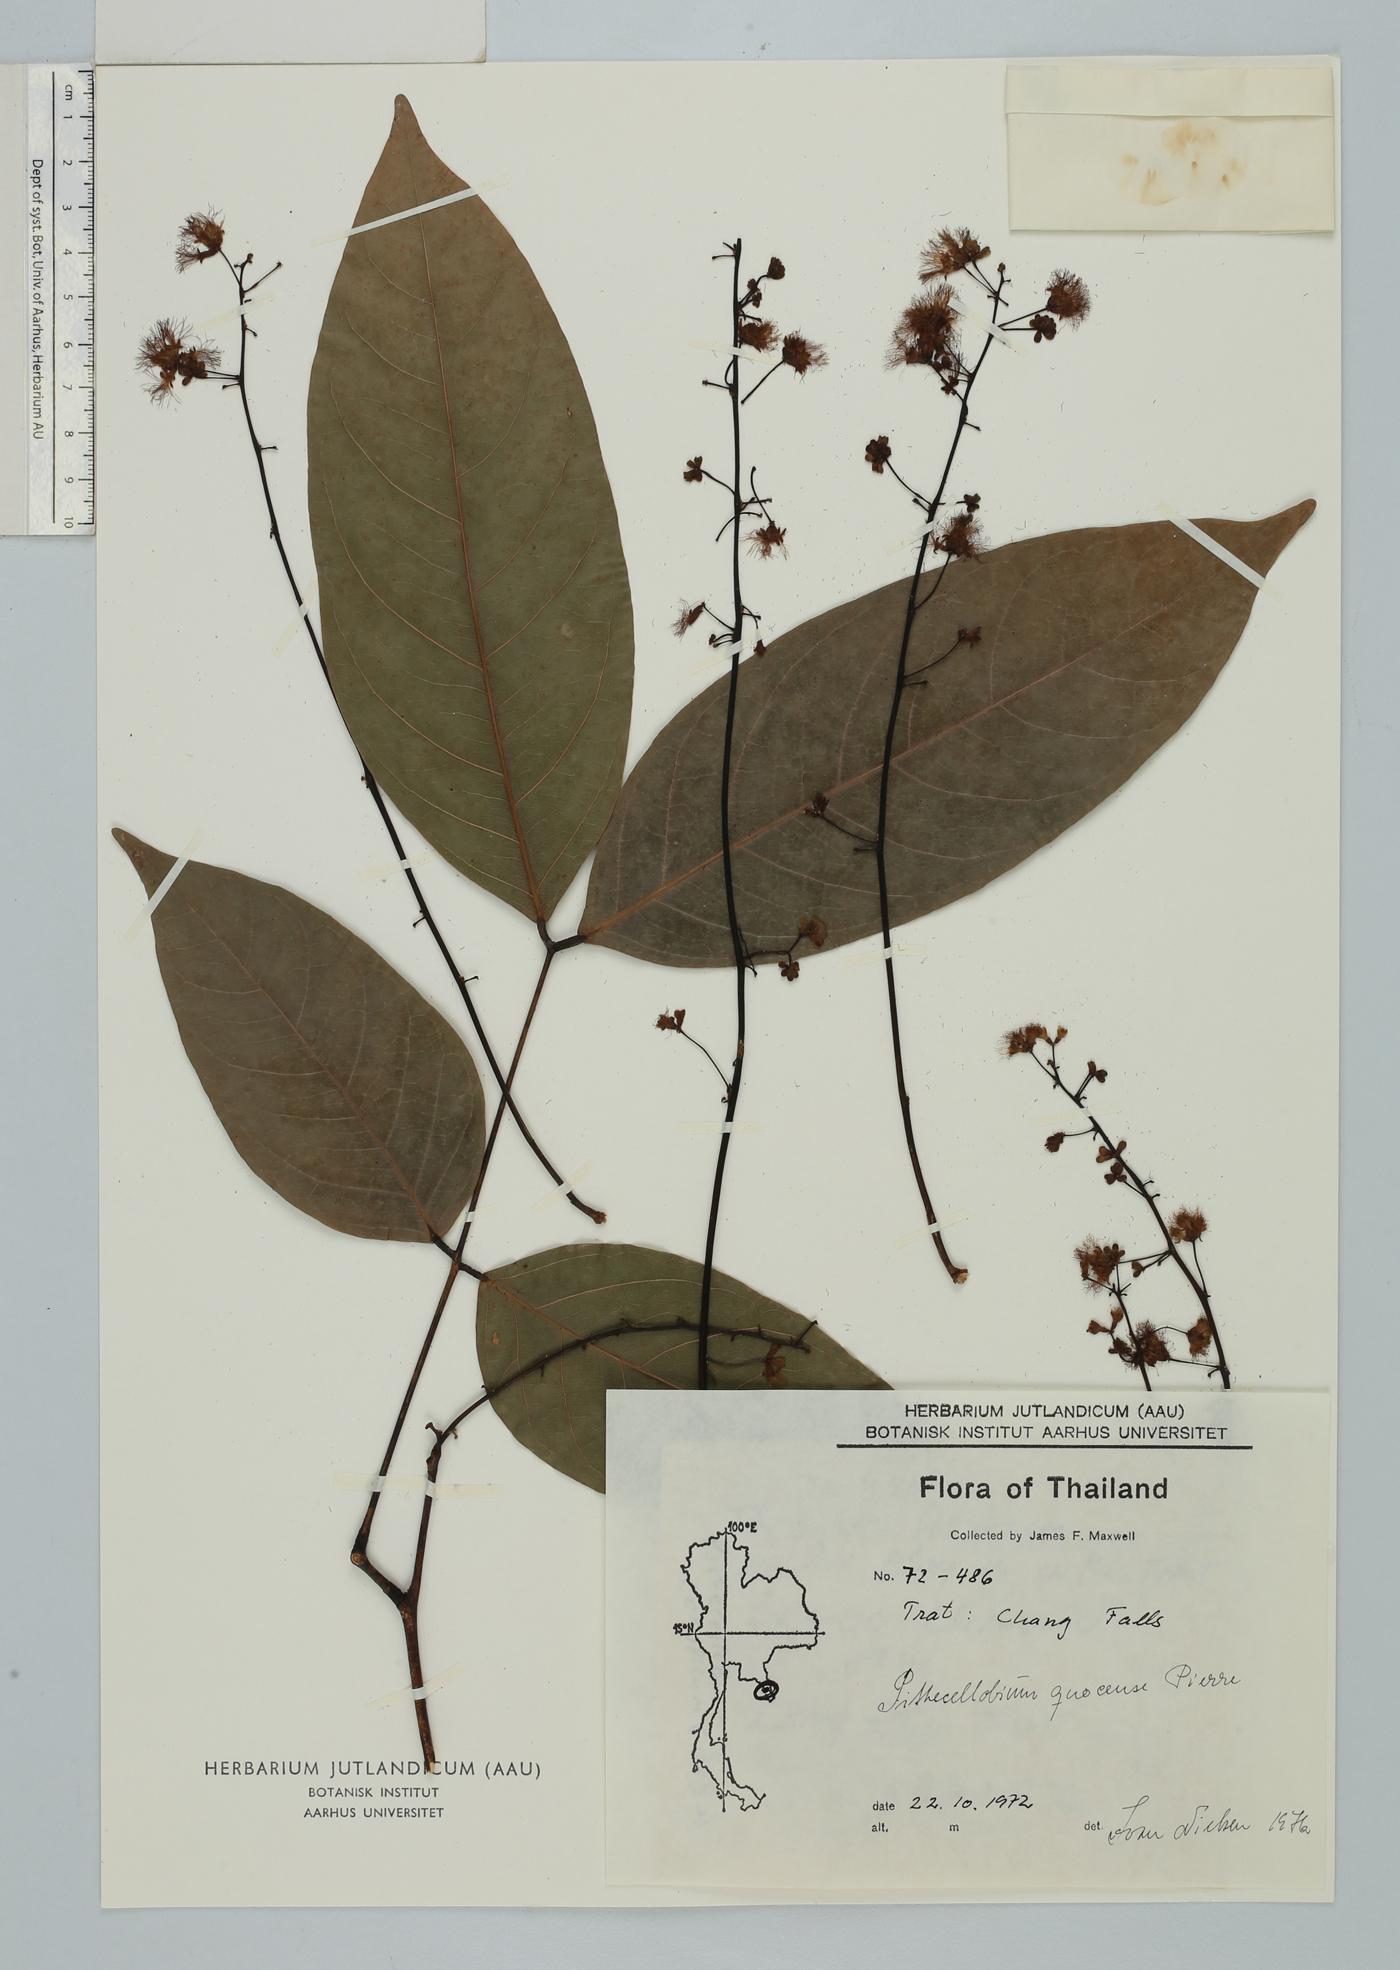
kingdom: Plantae
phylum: Tracheophyta
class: Magnoliopsida
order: Fabales
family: Fabaceae
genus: Archidendron
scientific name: Archidendron quocense
